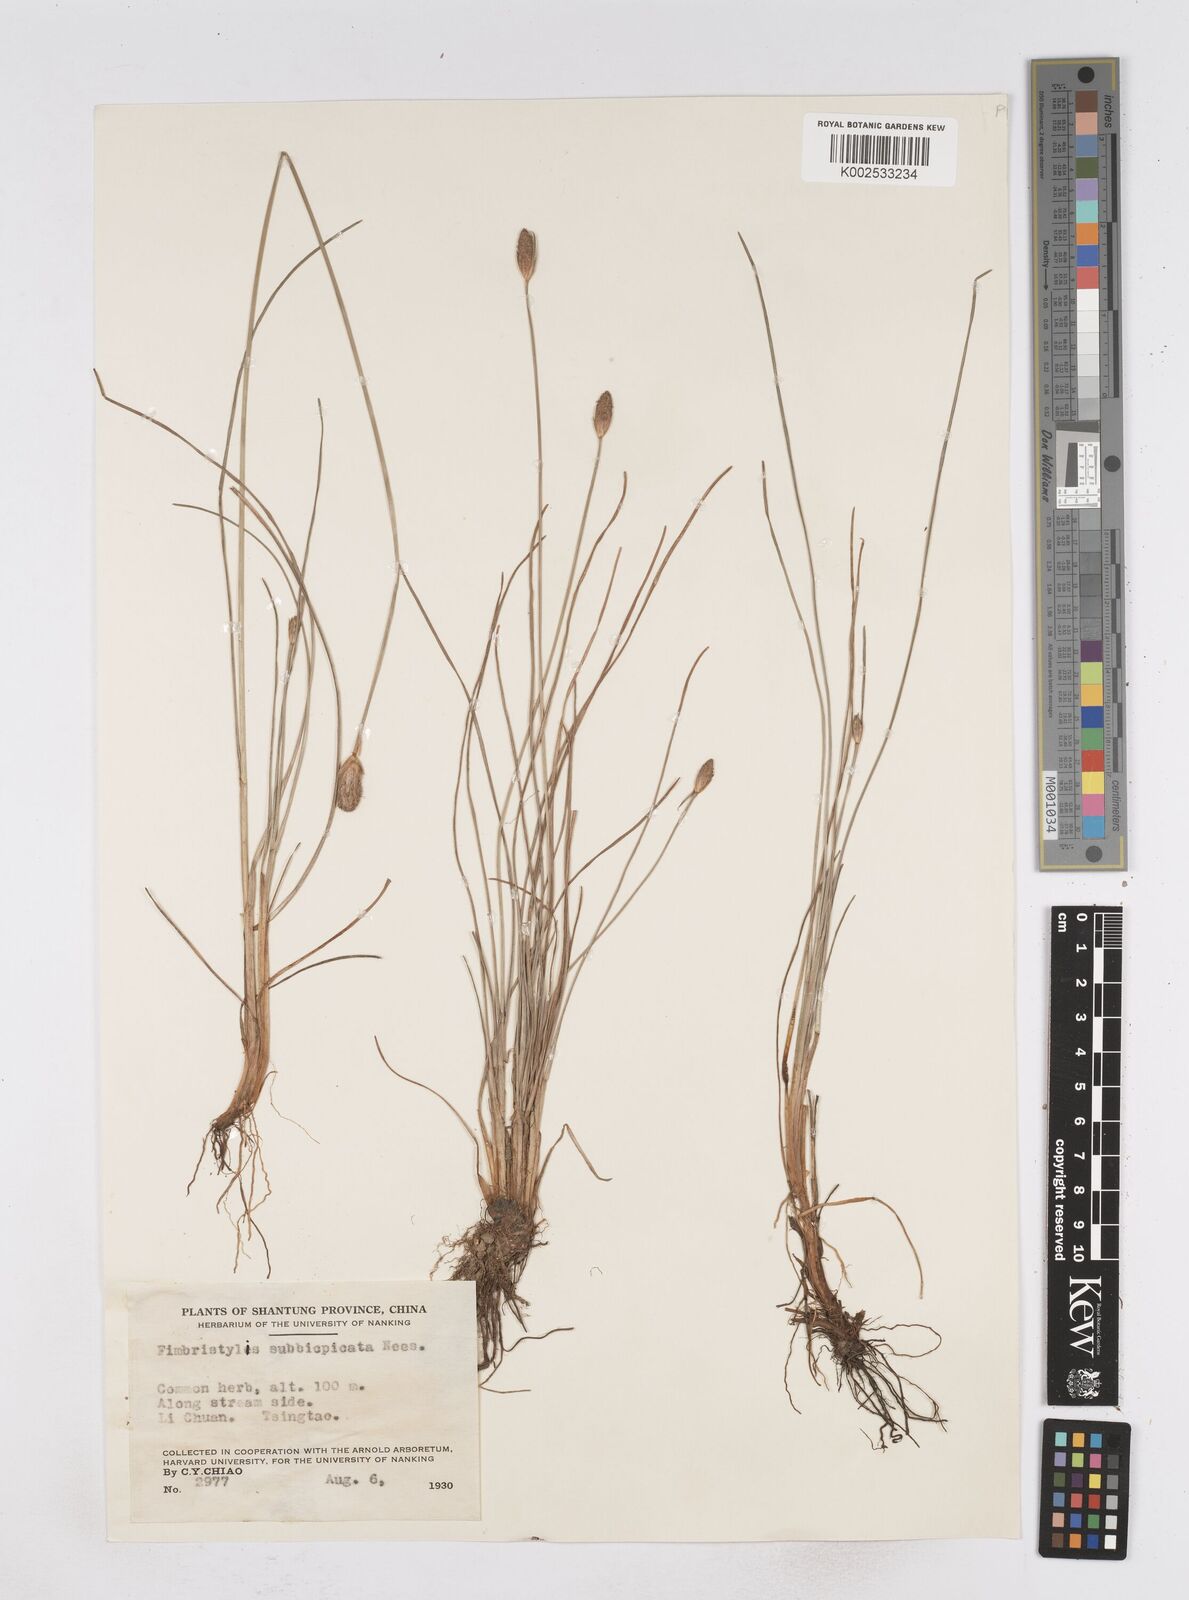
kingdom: Plantae
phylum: Tracheophyta
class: Liliopsida
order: Poales
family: Cyperaceae
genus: Fimbristylis
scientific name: Fimbristylis tristachya
